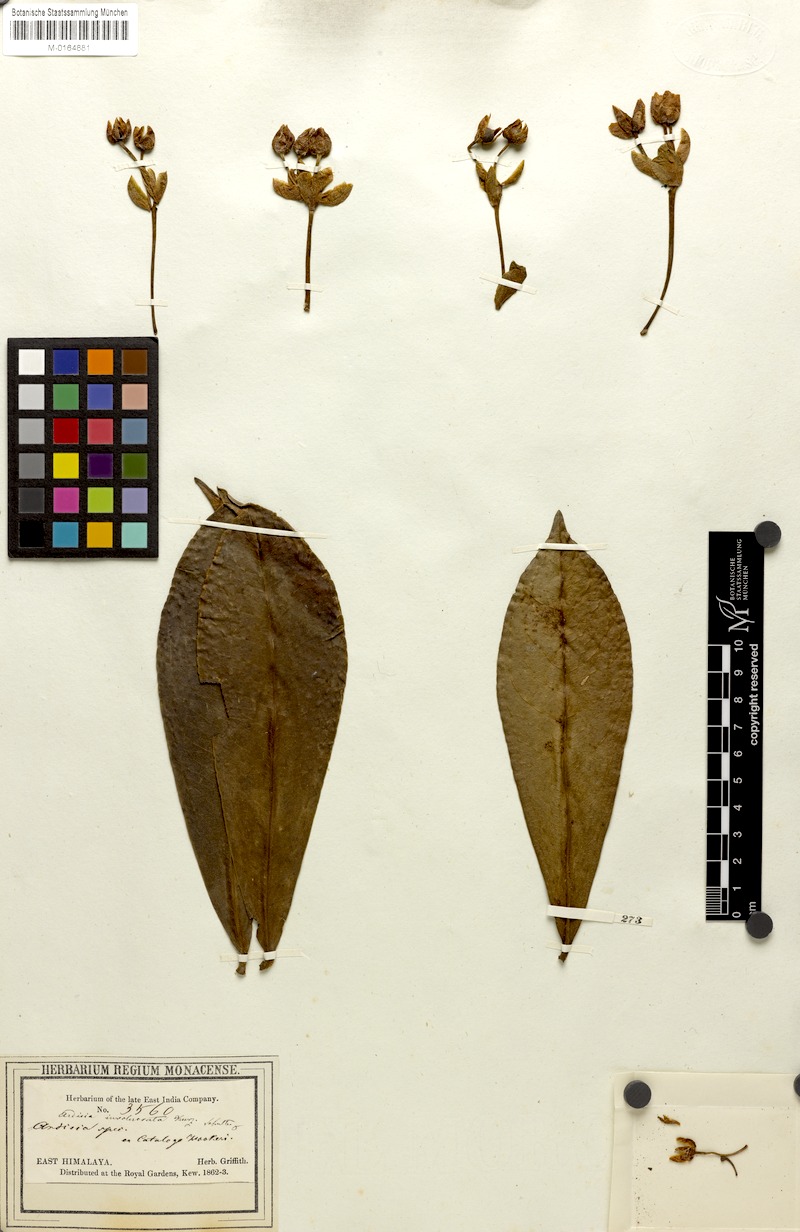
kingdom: Plantae
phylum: Tracheophyta
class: Magnoliopsida
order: Ericales
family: Primulaceae
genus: Ardisia
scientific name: Ardisia involucrata
